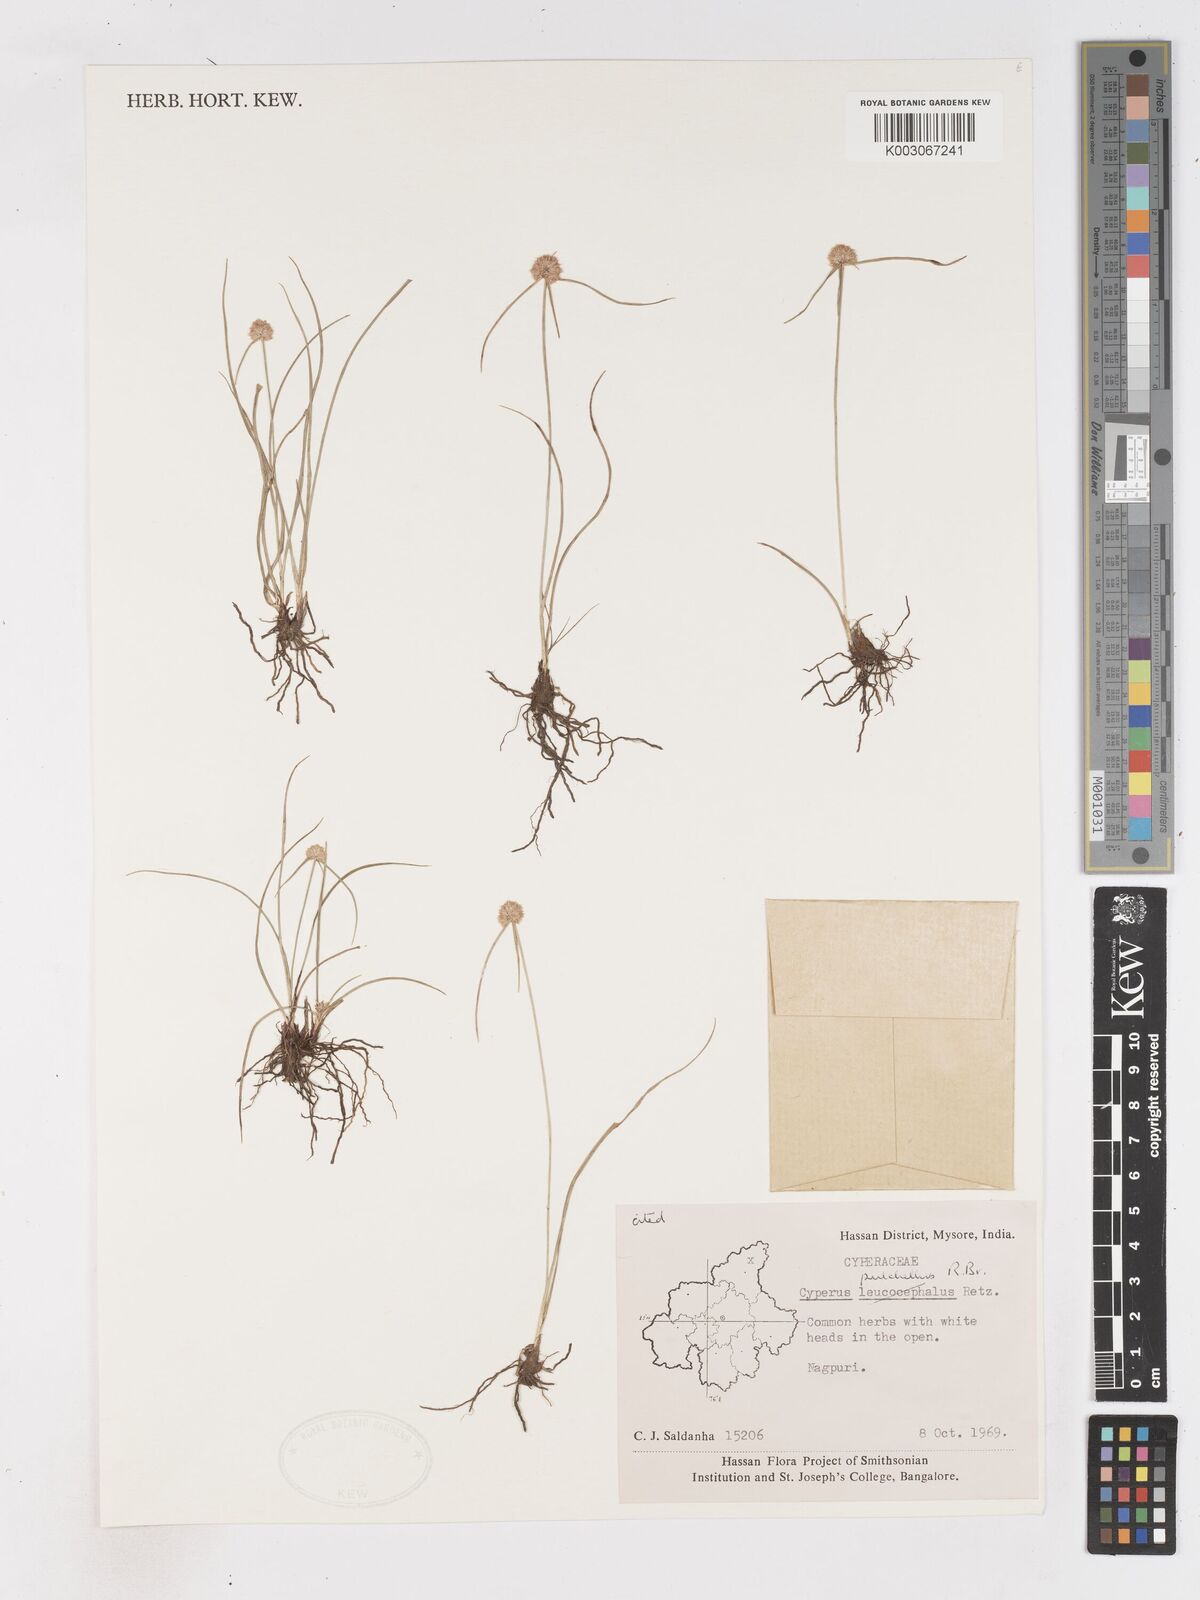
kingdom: Plantae
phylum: Tracheophyta
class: Liliopsida
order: Poales
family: Cyperaceae
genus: Cyperus
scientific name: Cyperus pulchellus
